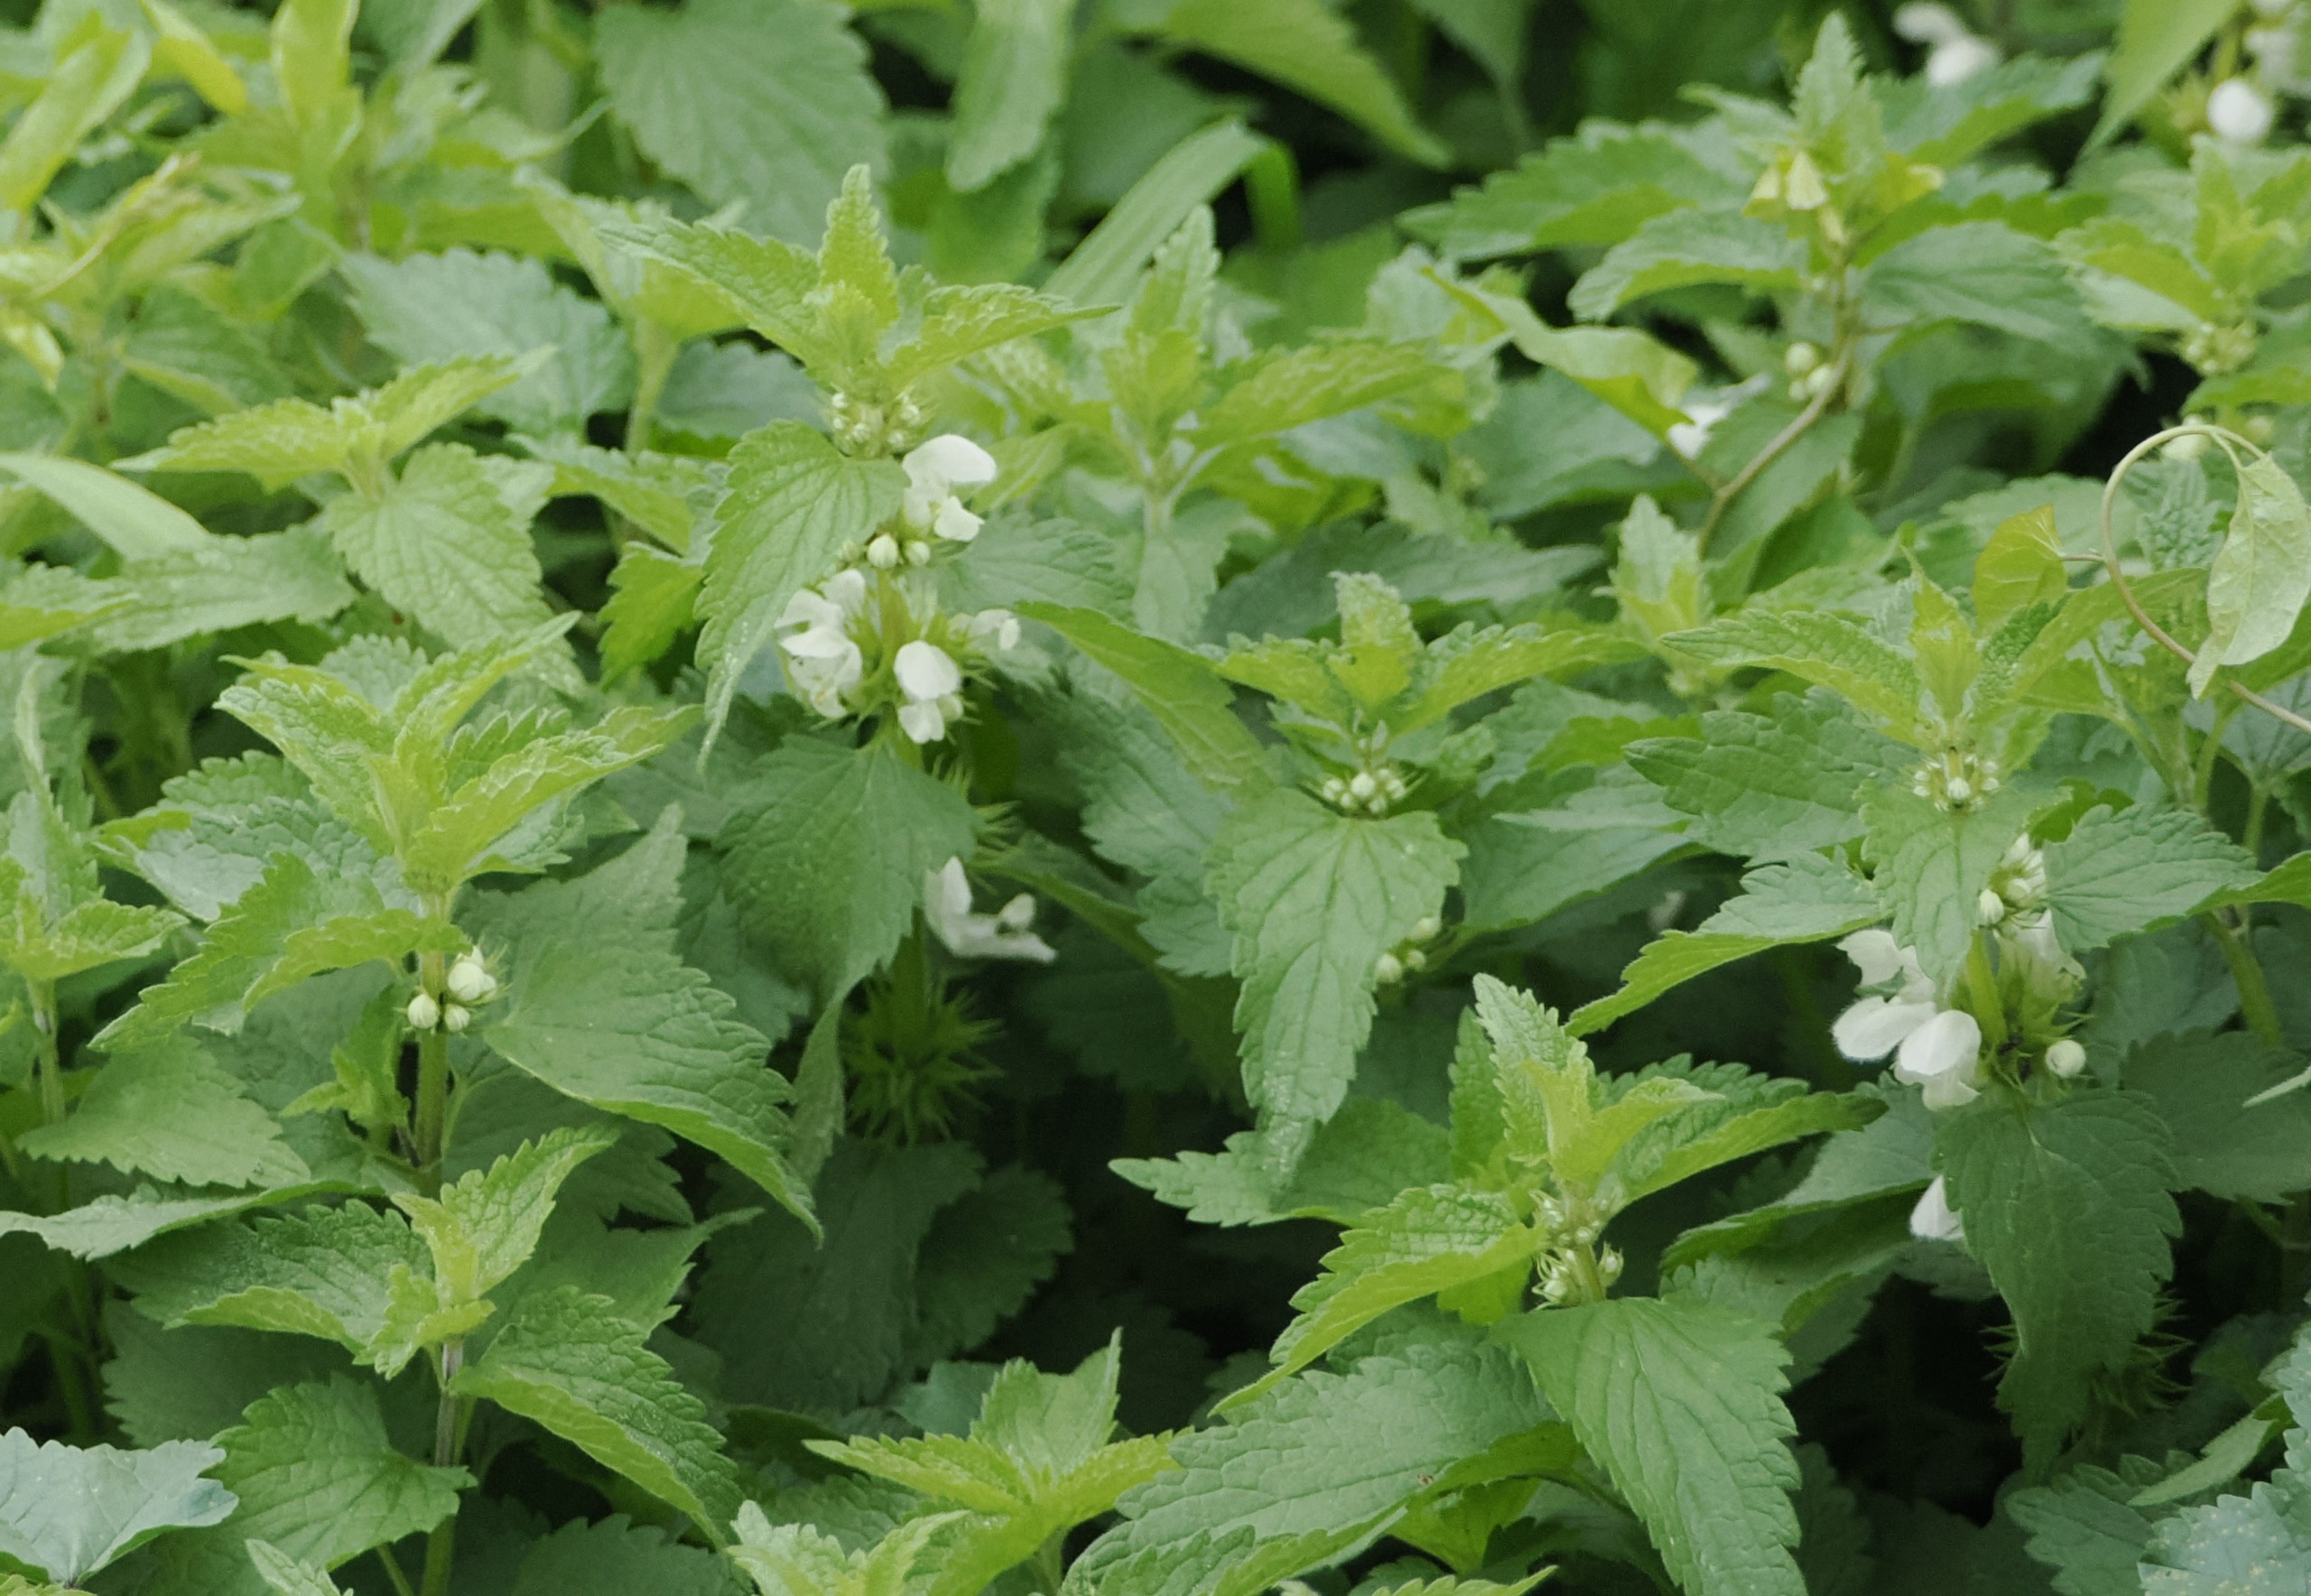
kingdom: Plantae
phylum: Tracheophyta
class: Magnoliopsida
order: Lamiales
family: Lamiaceae
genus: Lamium
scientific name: Lamium album
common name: Døvnælde
